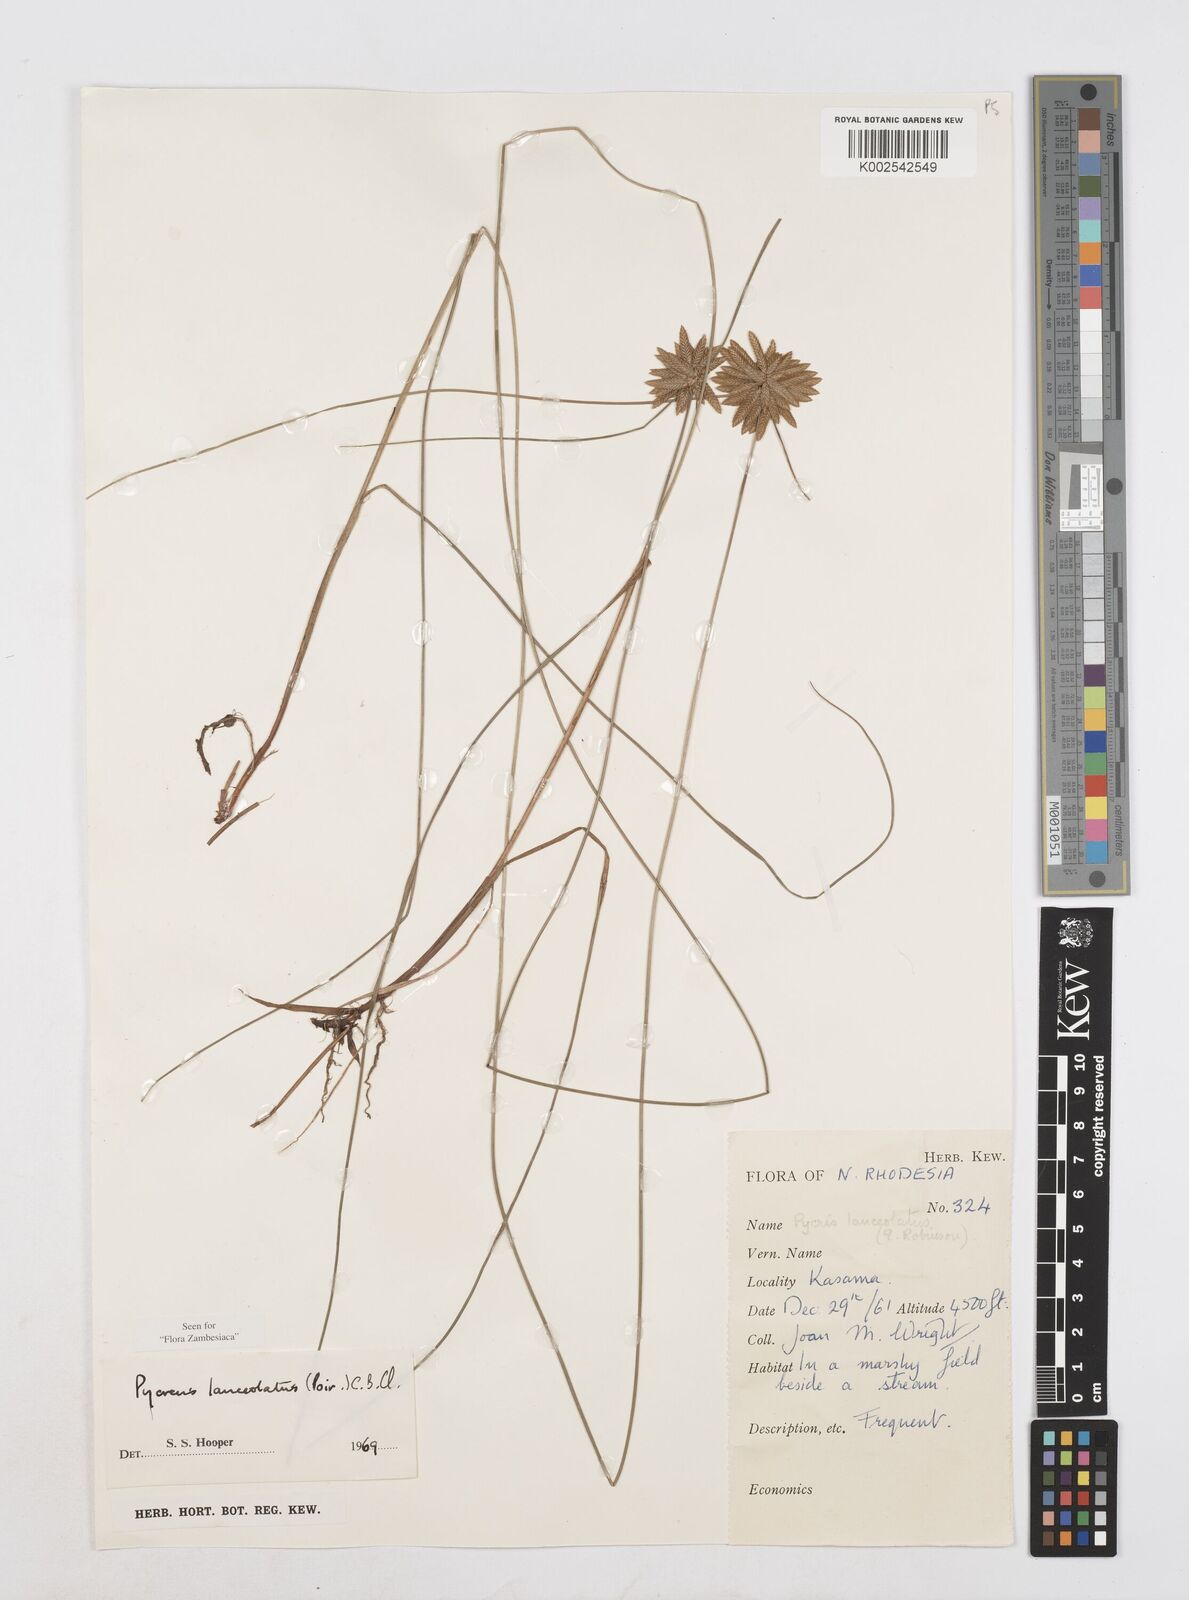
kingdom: Plantae
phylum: Tracheophyta
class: Liliopsida
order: Poales
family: Cyperaceae
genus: Cyperus
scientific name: Cyperus
